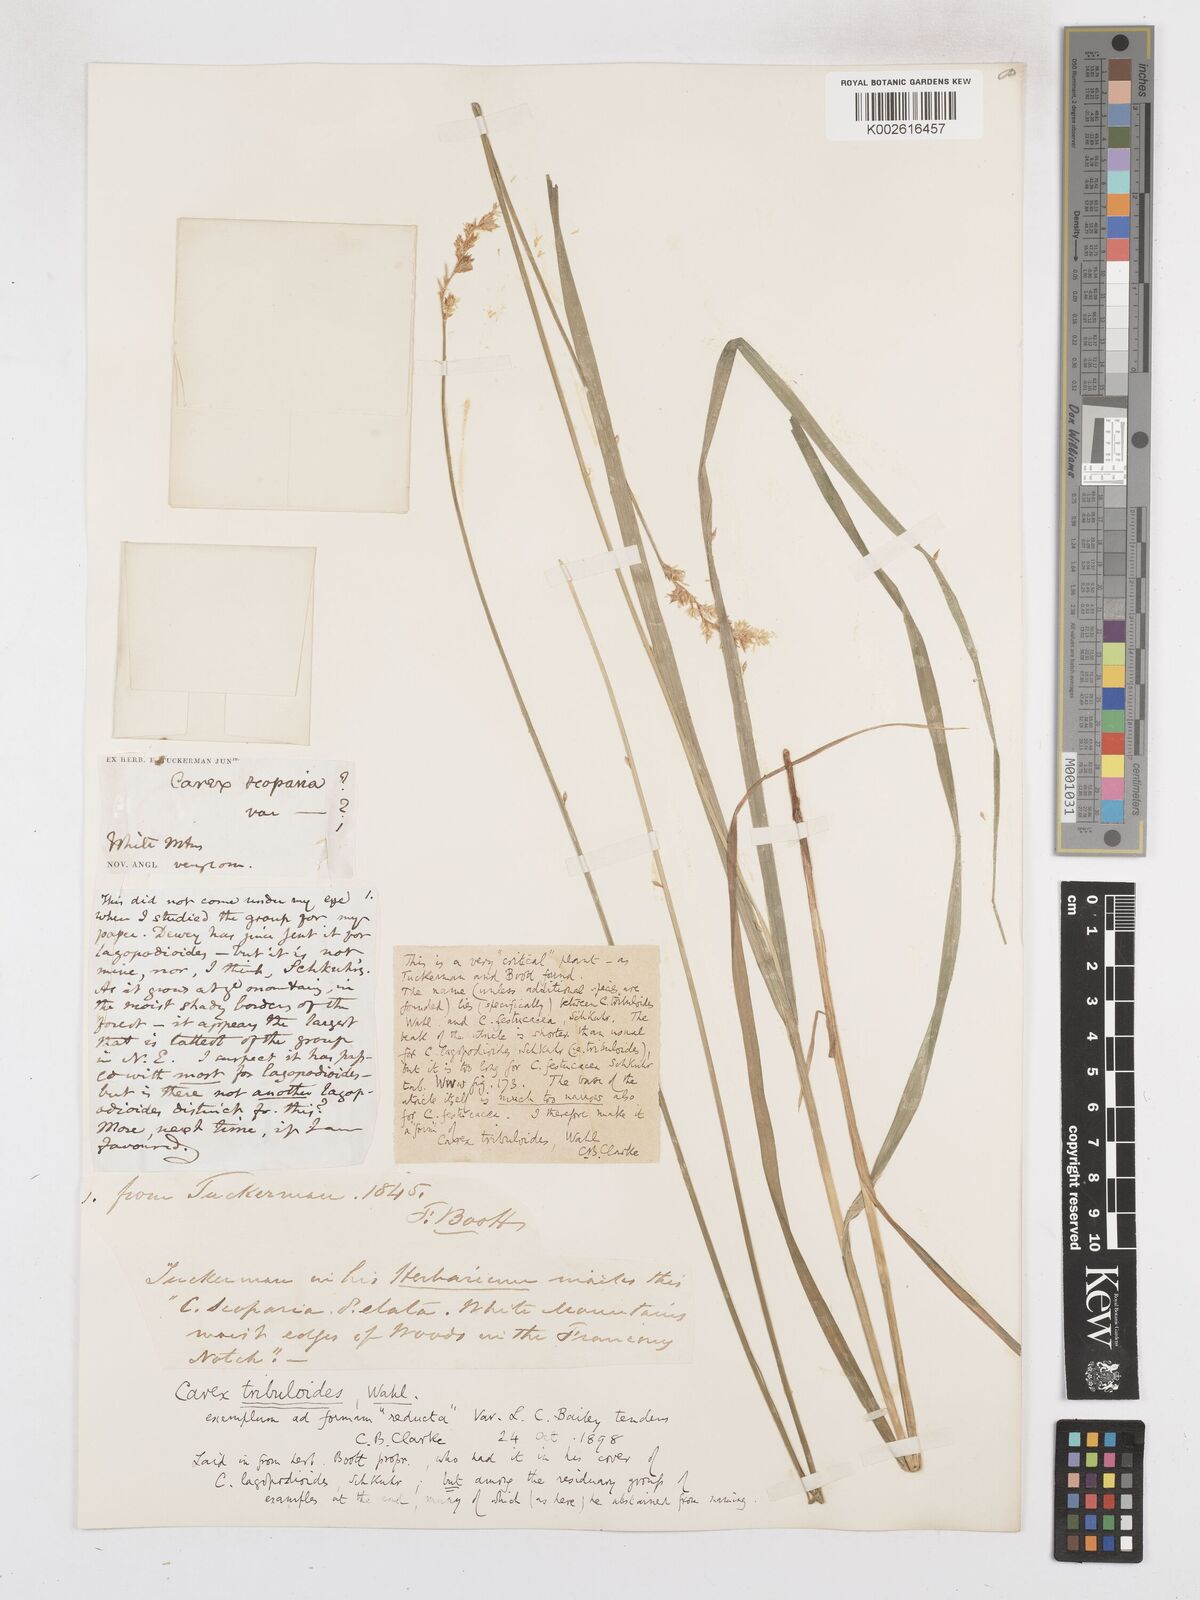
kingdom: Plantae
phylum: Tracheophyta
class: Liliopsida
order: Poales
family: Cyperaceae
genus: Carex
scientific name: Carex tribuloides
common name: Blunt broom sedge
